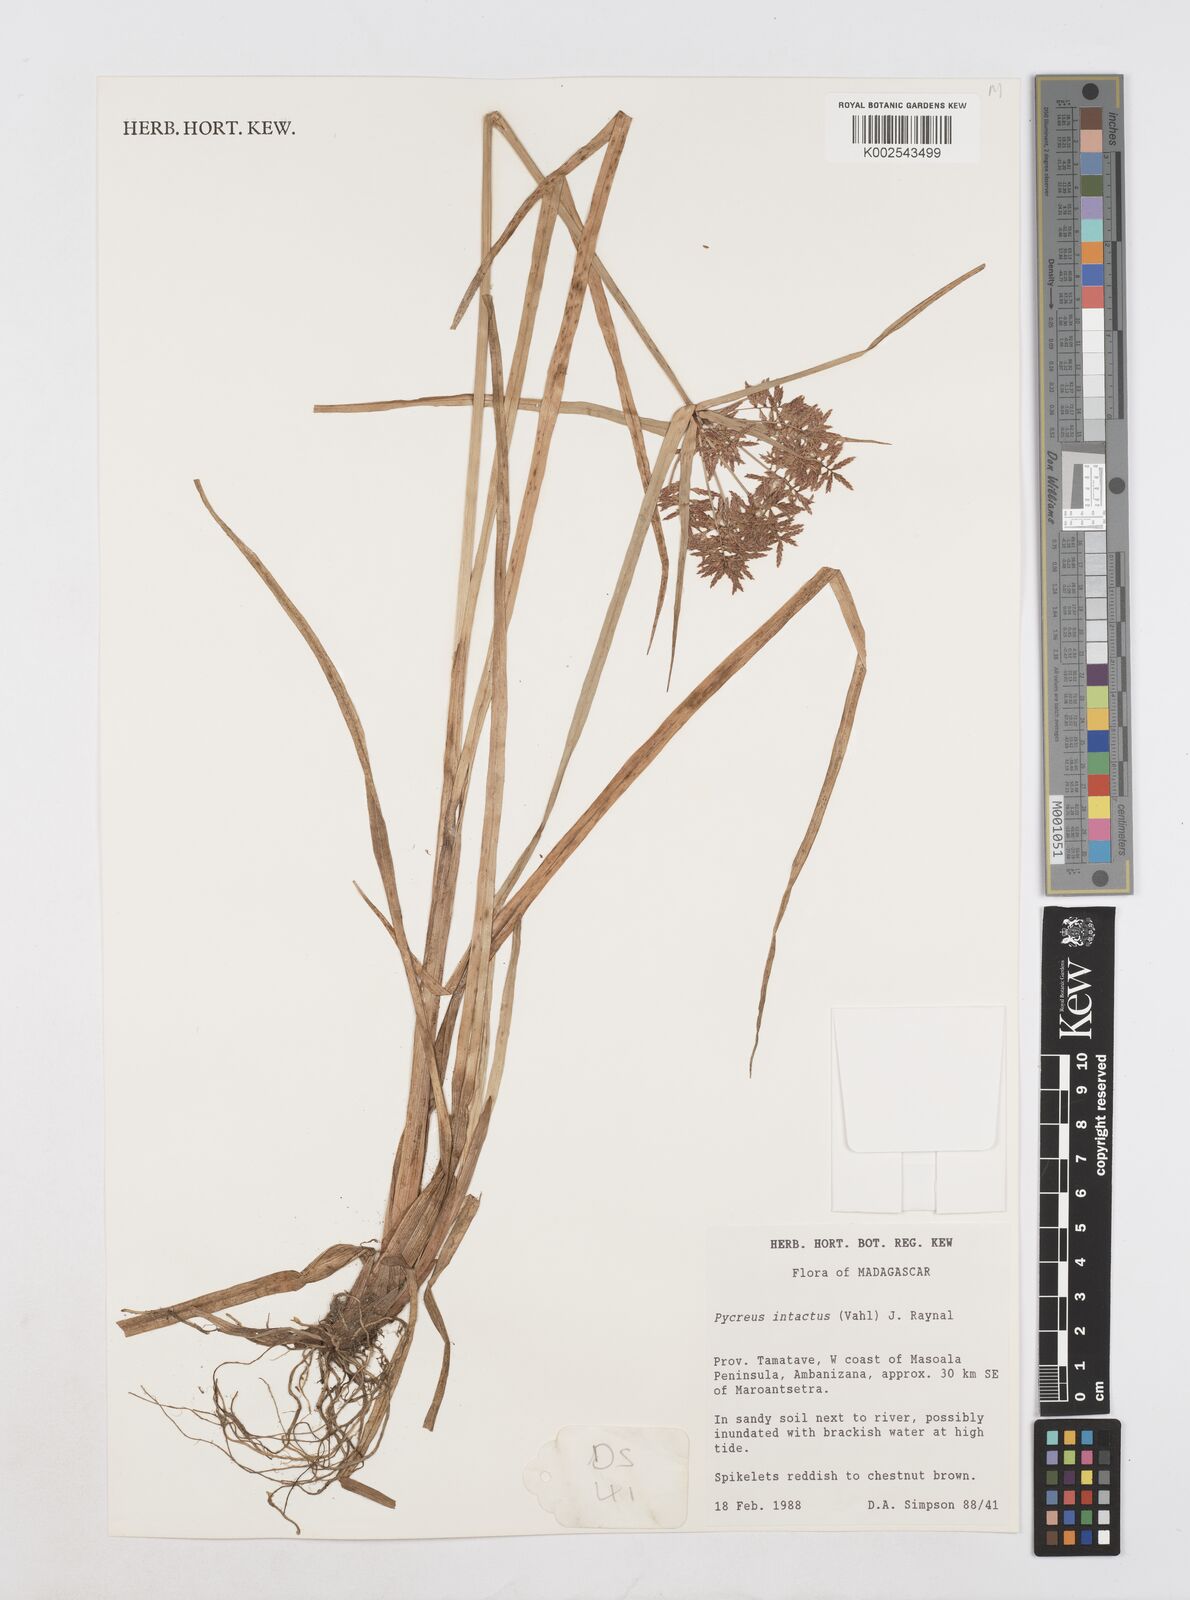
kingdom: Plantae
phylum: Tracheophyta
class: Liliopsida
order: Poales
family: Cyperaceae
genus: Cyperus
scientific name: Cyperus intactus
